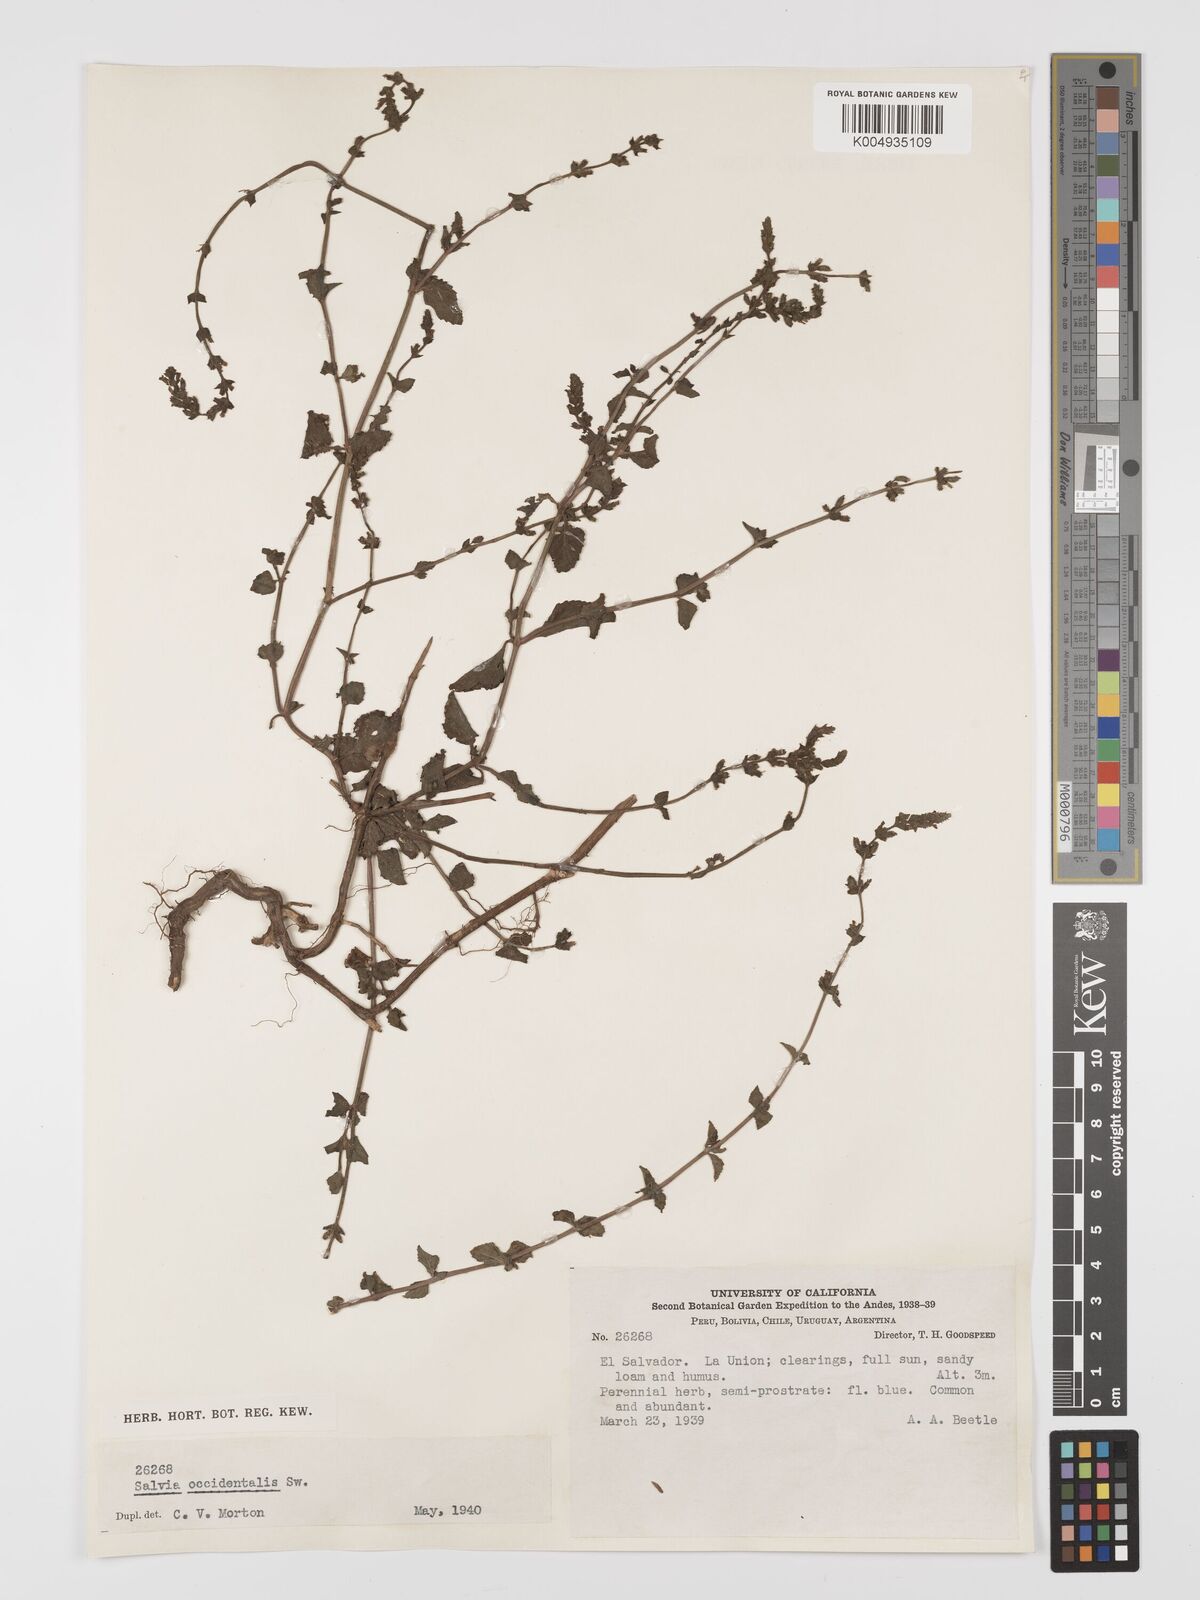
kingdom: Plantae
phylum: Tracheophyta
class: Magnoliopsida
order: Lamiales
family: Lamiaceae
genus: Salvia
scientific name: Salvia occidentalis
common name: West indian sage
